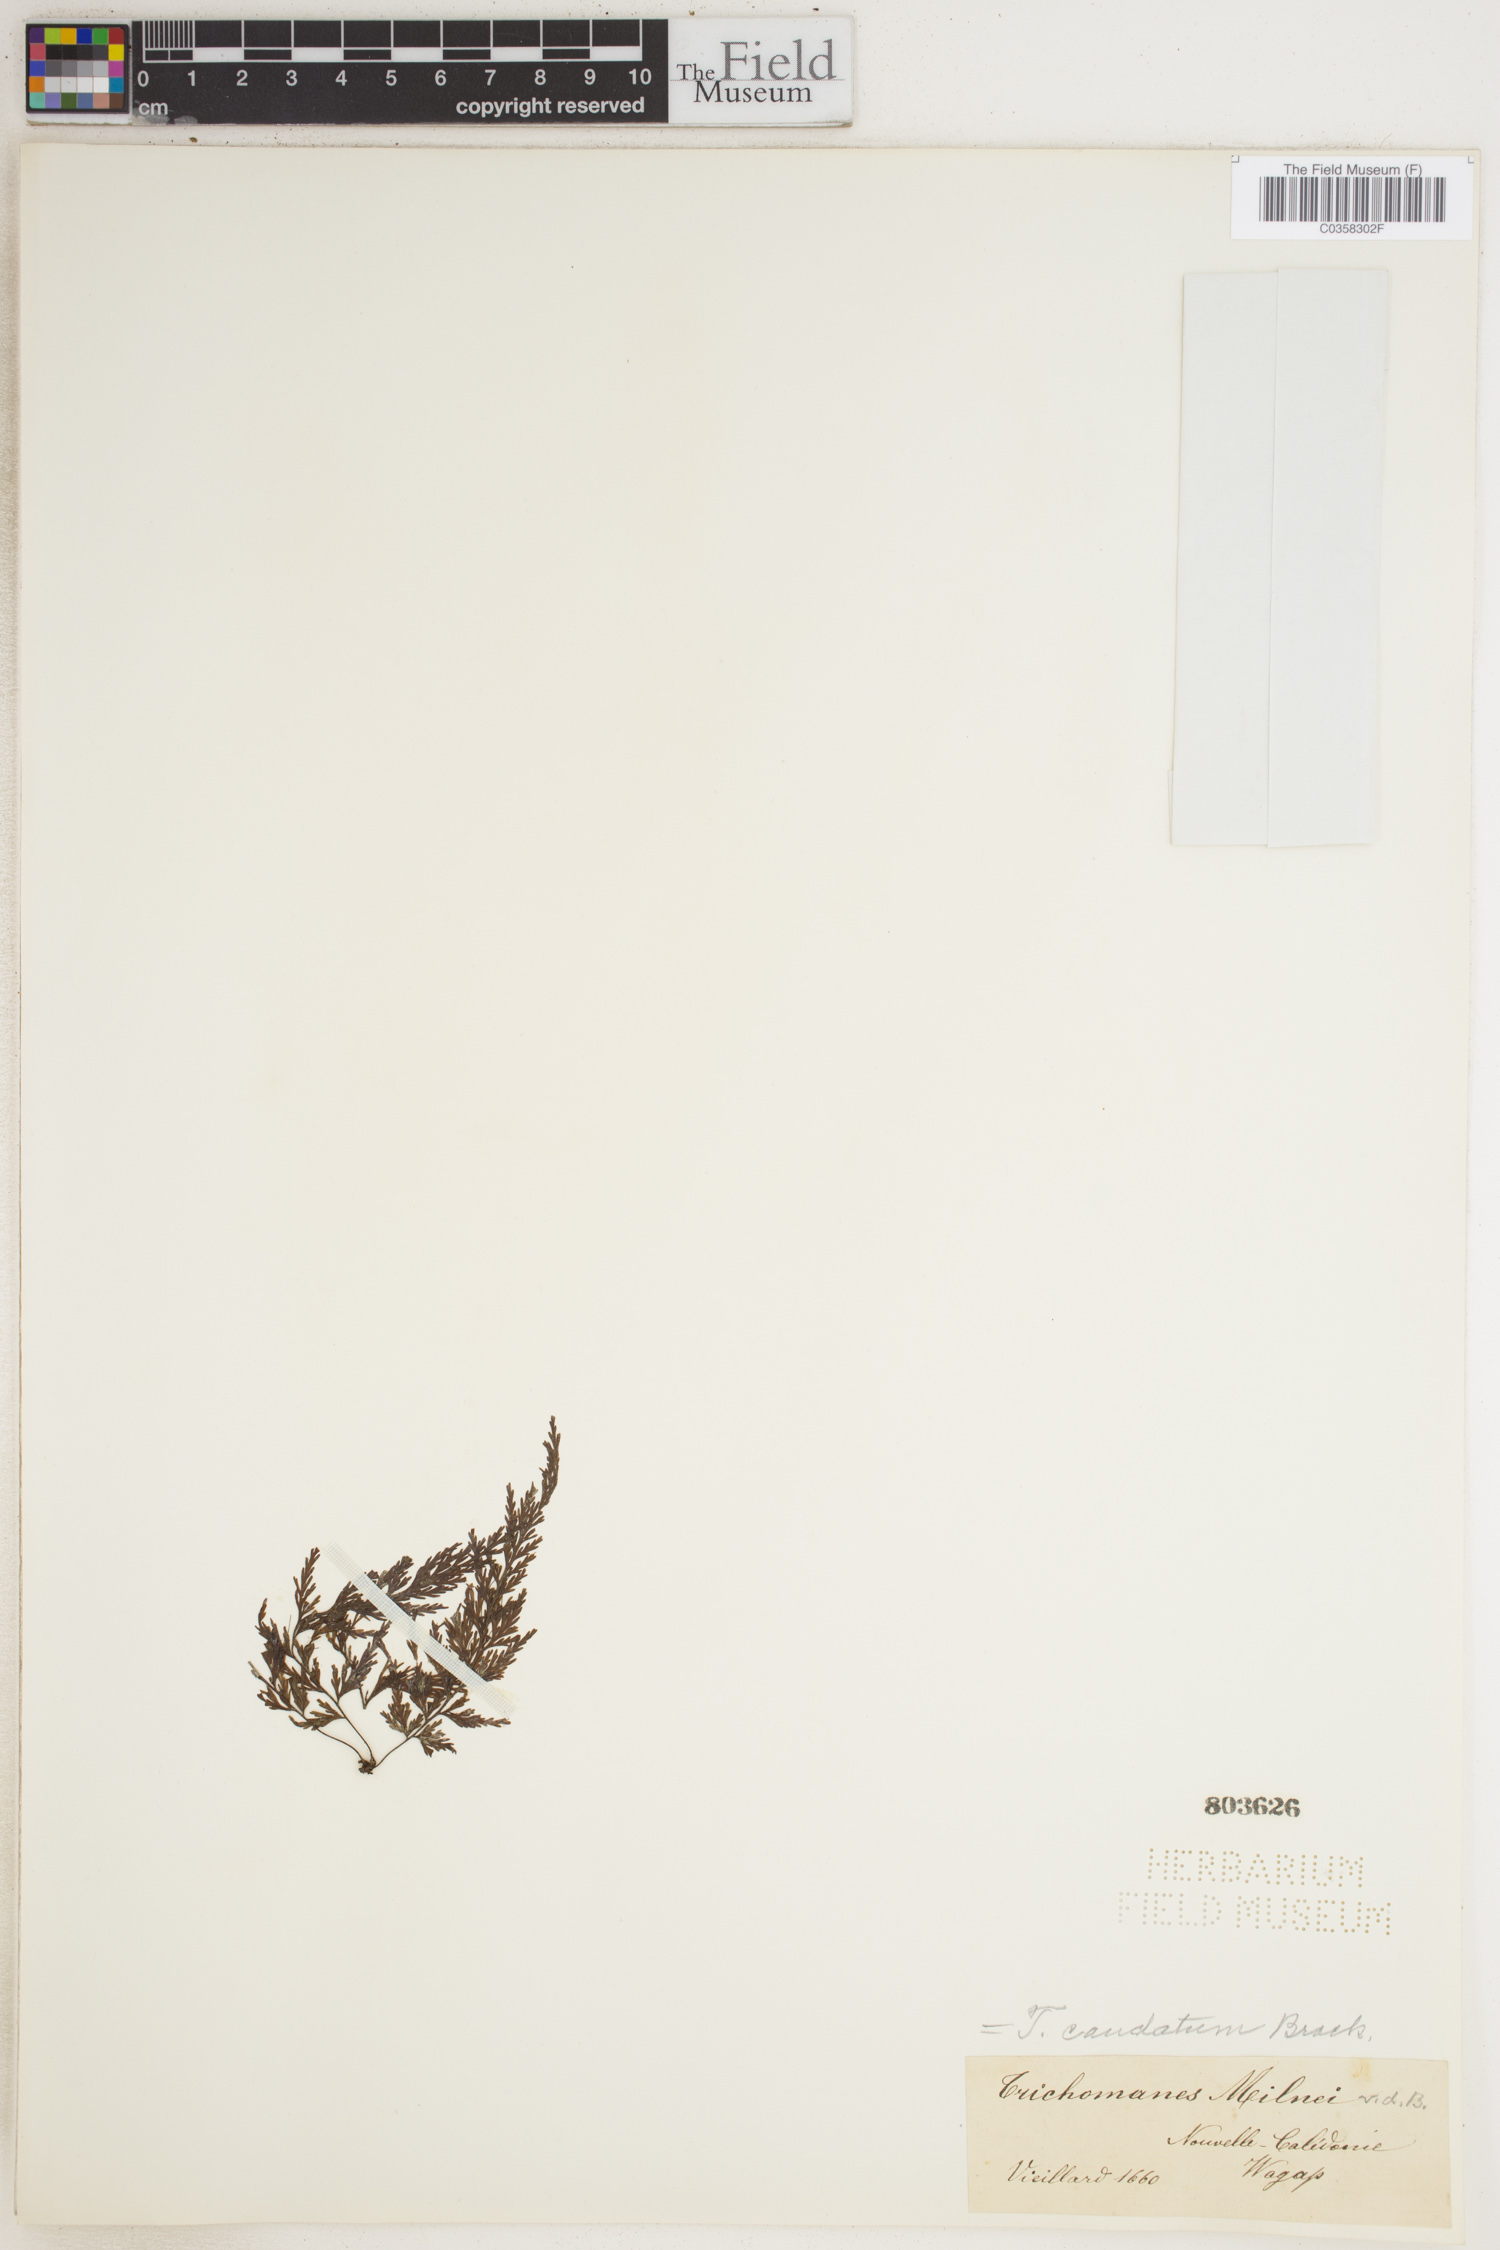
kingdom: Plantae
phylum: Tracheophyta
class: Polypodiopsida
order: Hymenophyllales
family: Hymenophyllaceae
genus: Abrodictyum
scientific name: Abrodictyum caudatum
